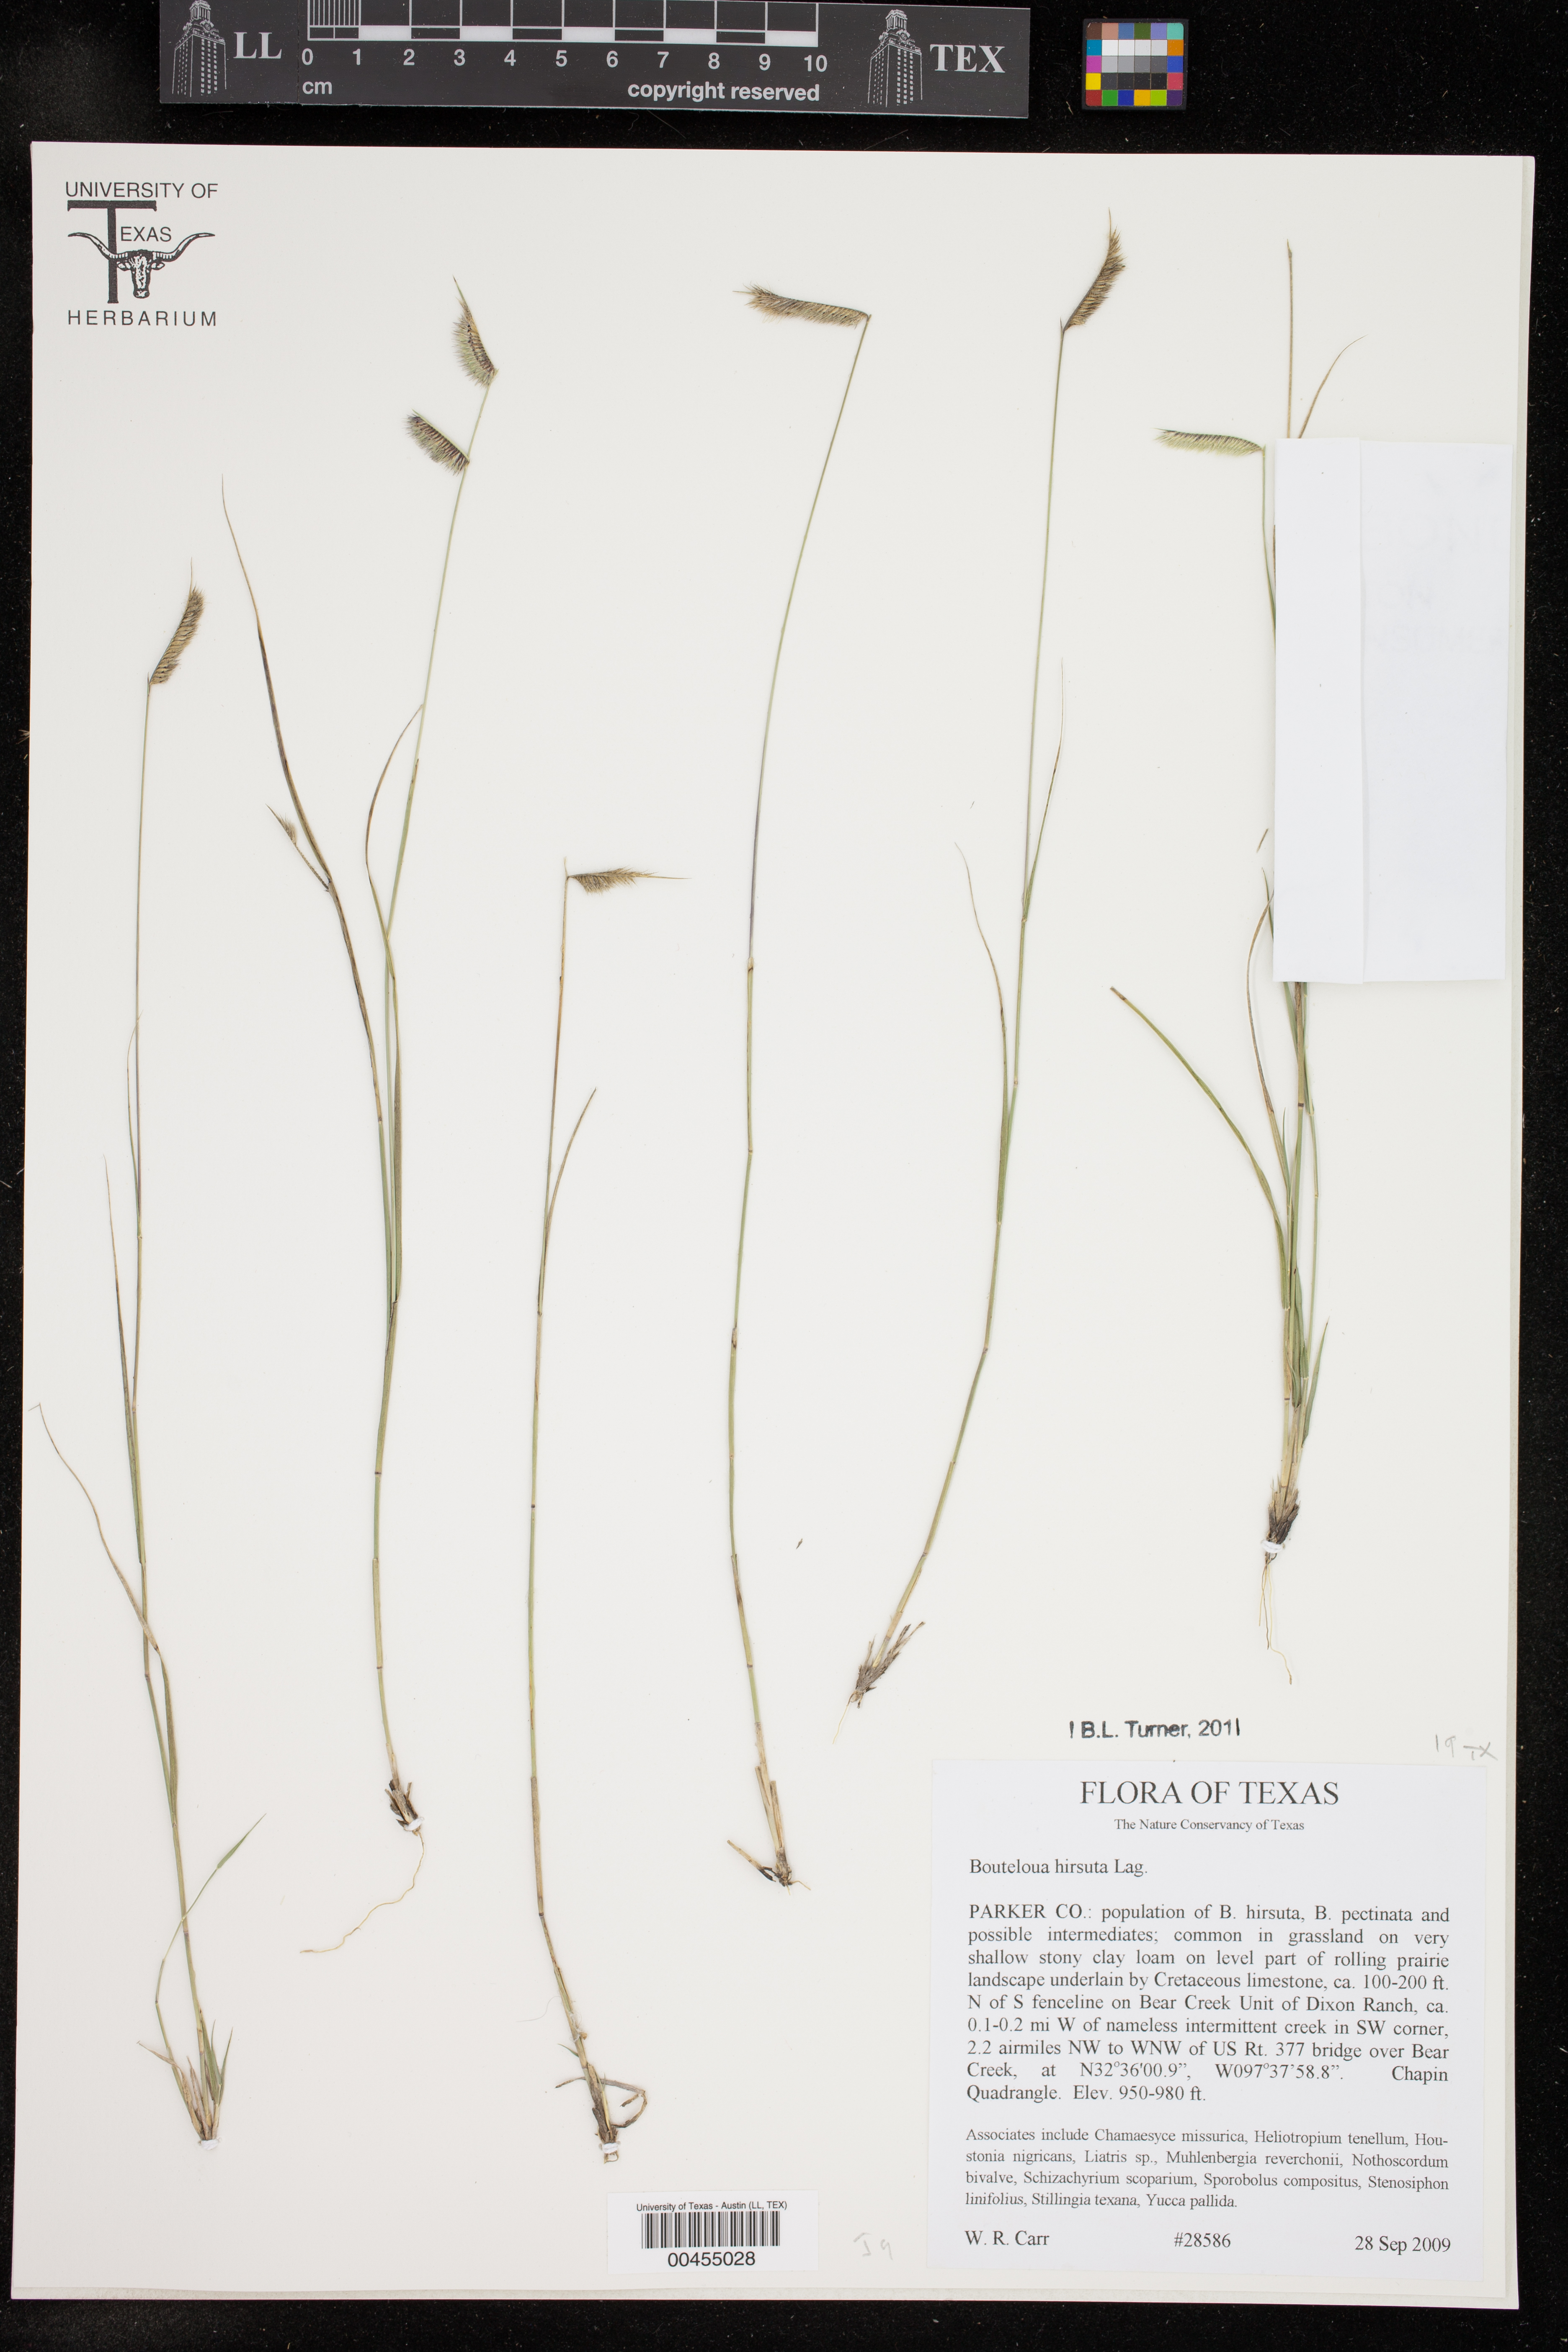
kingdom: Plantae
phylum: Tracheophyta
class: Liliopsida
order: Poales
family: Poaceae
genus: Bouteloua
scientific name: Bouteloua hirsuta
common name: Hairy grama
